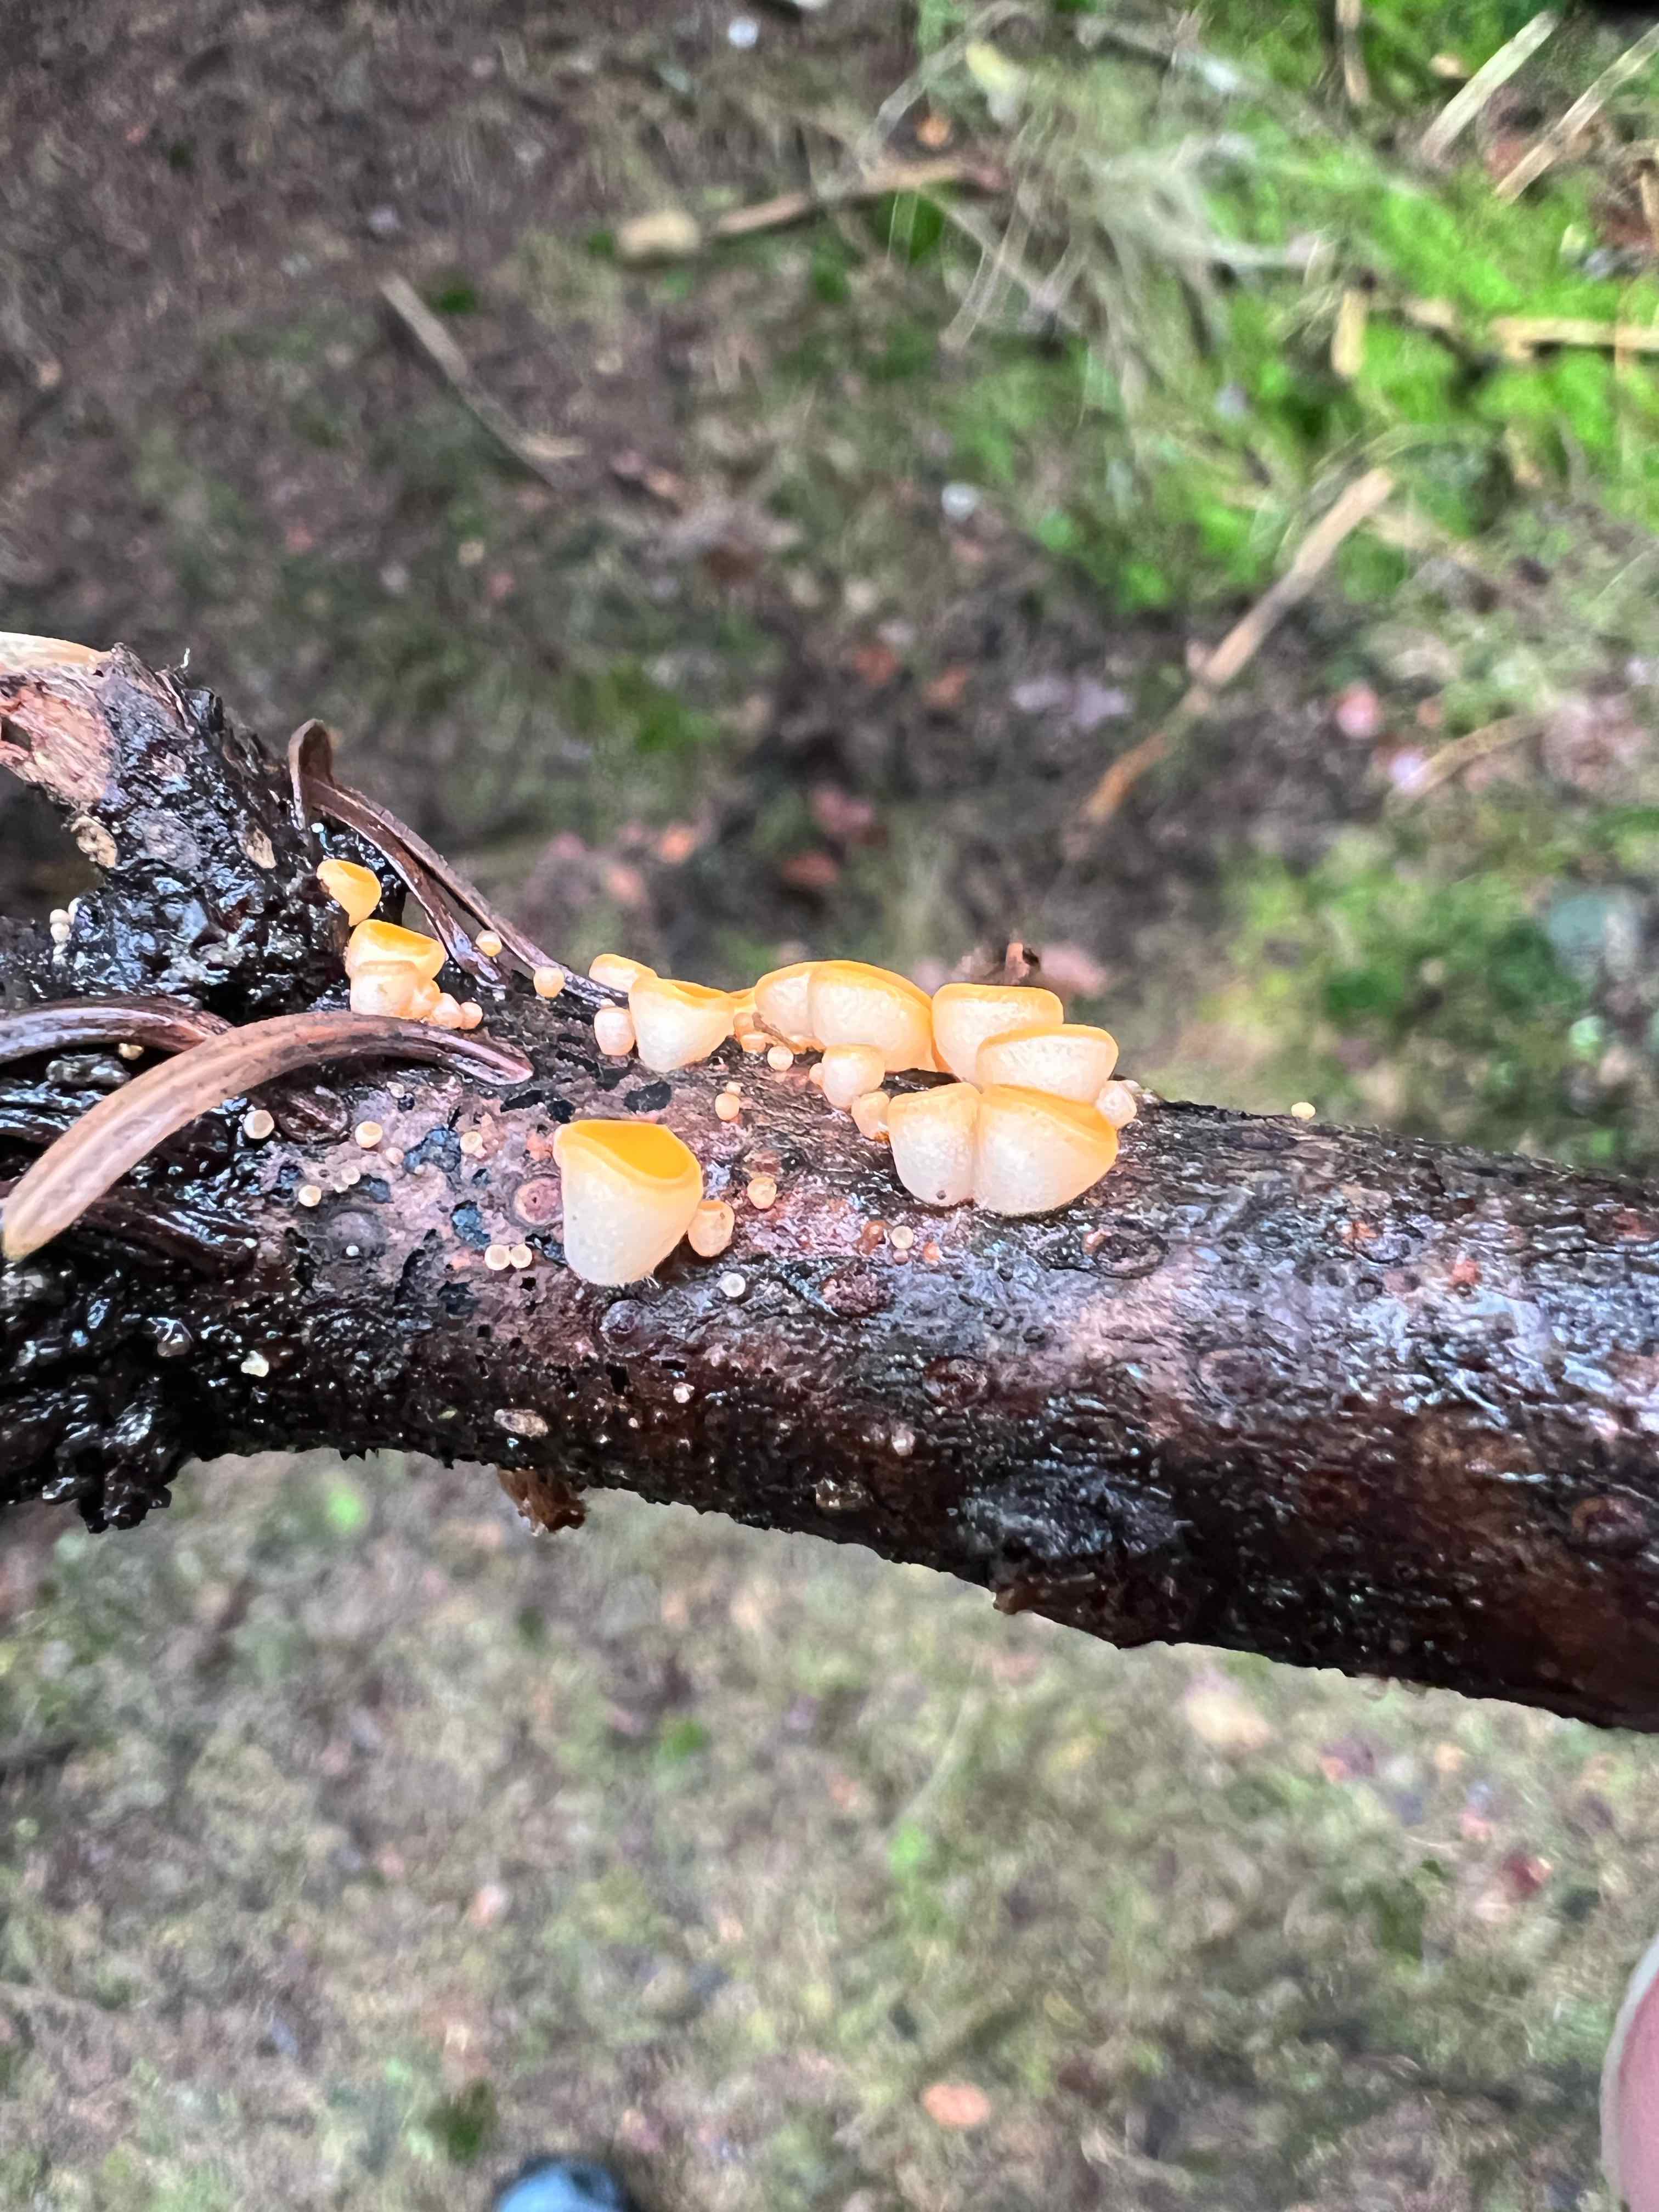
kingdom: Fungi
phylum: Ascomycota
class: Pezizomycetes
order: Pezizales
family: Sarcoscyphaceae
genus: Pithya
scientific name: Pithya vulgaris
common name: stor dukatbæger
